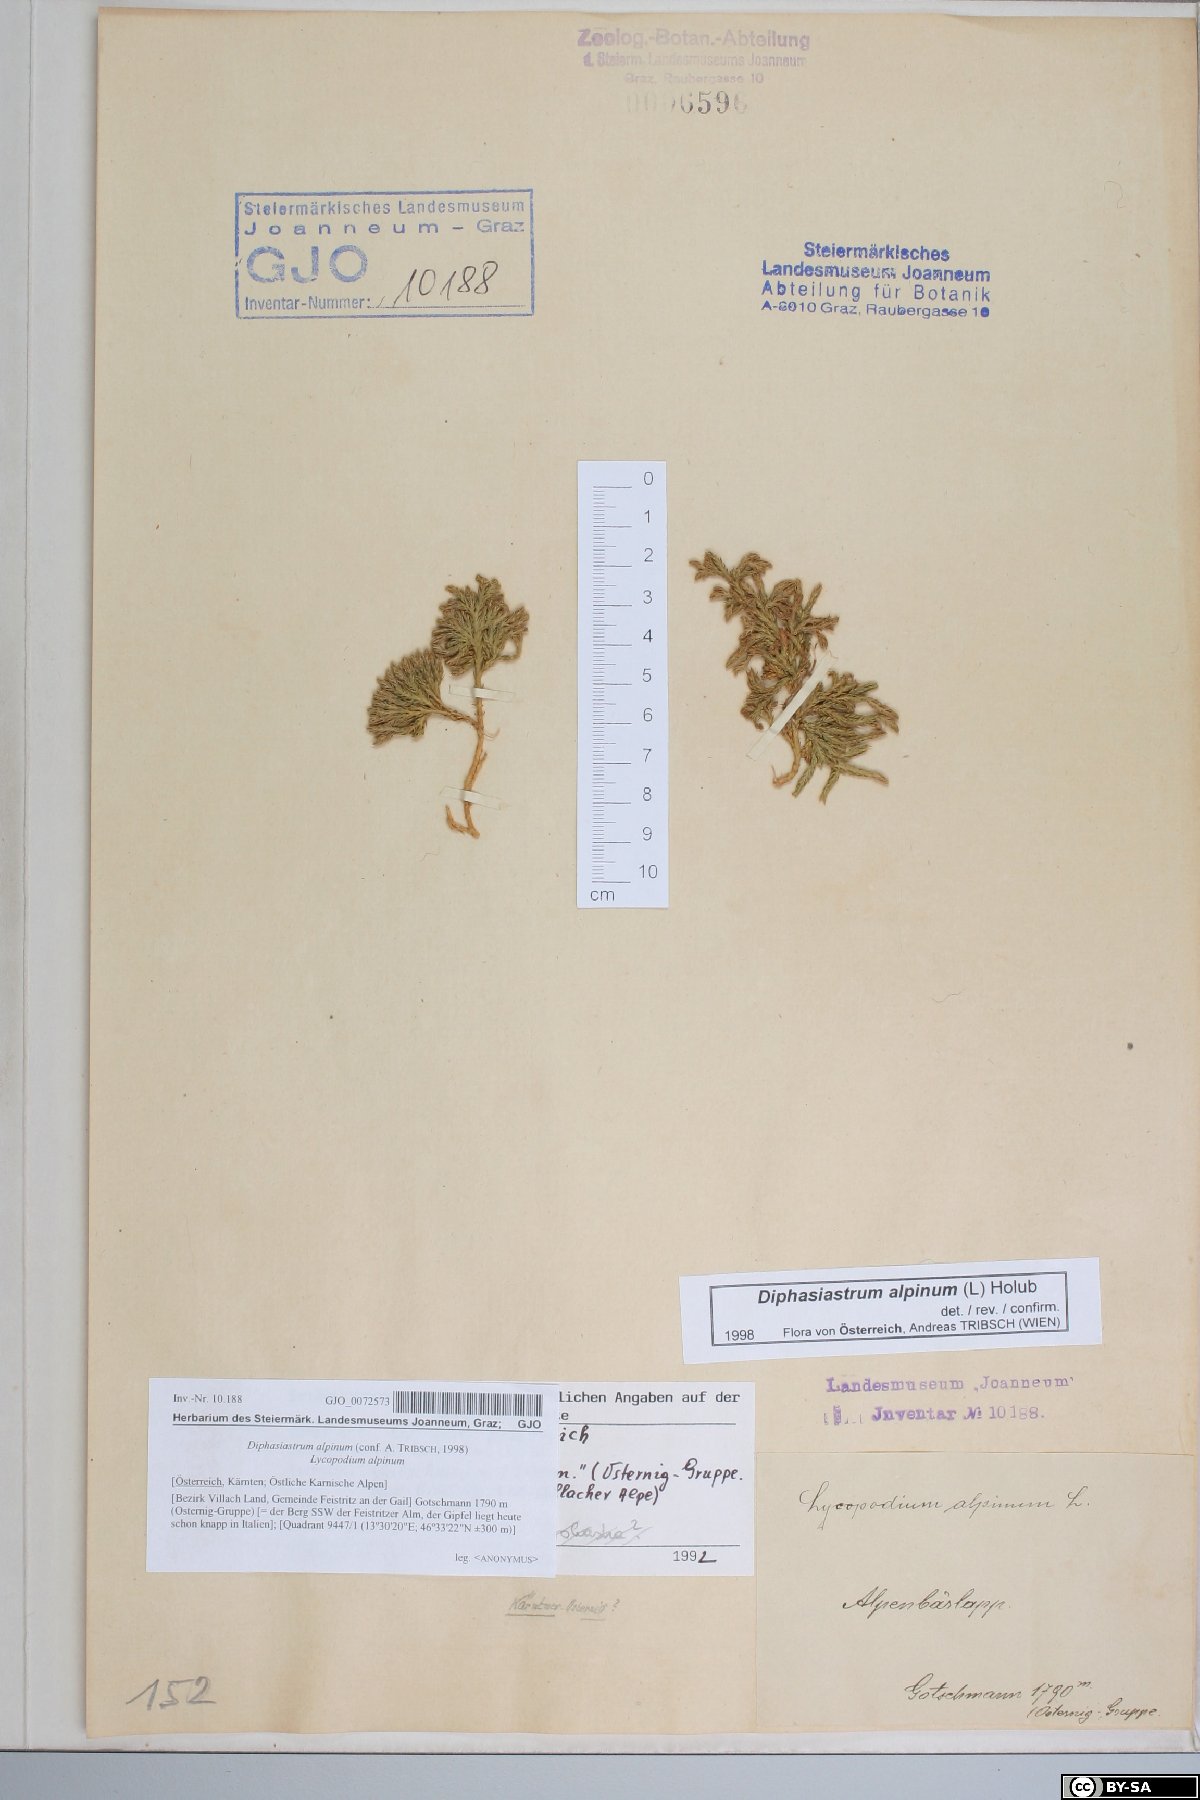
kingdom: Plantae
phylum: Tracheophyta
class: Lycopodiopsida
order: Lycopodiales
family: Lycopodiaceae
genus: Diphasiastrum
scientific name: Diphasiastrum alpinum
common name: Alpine clubmoss
